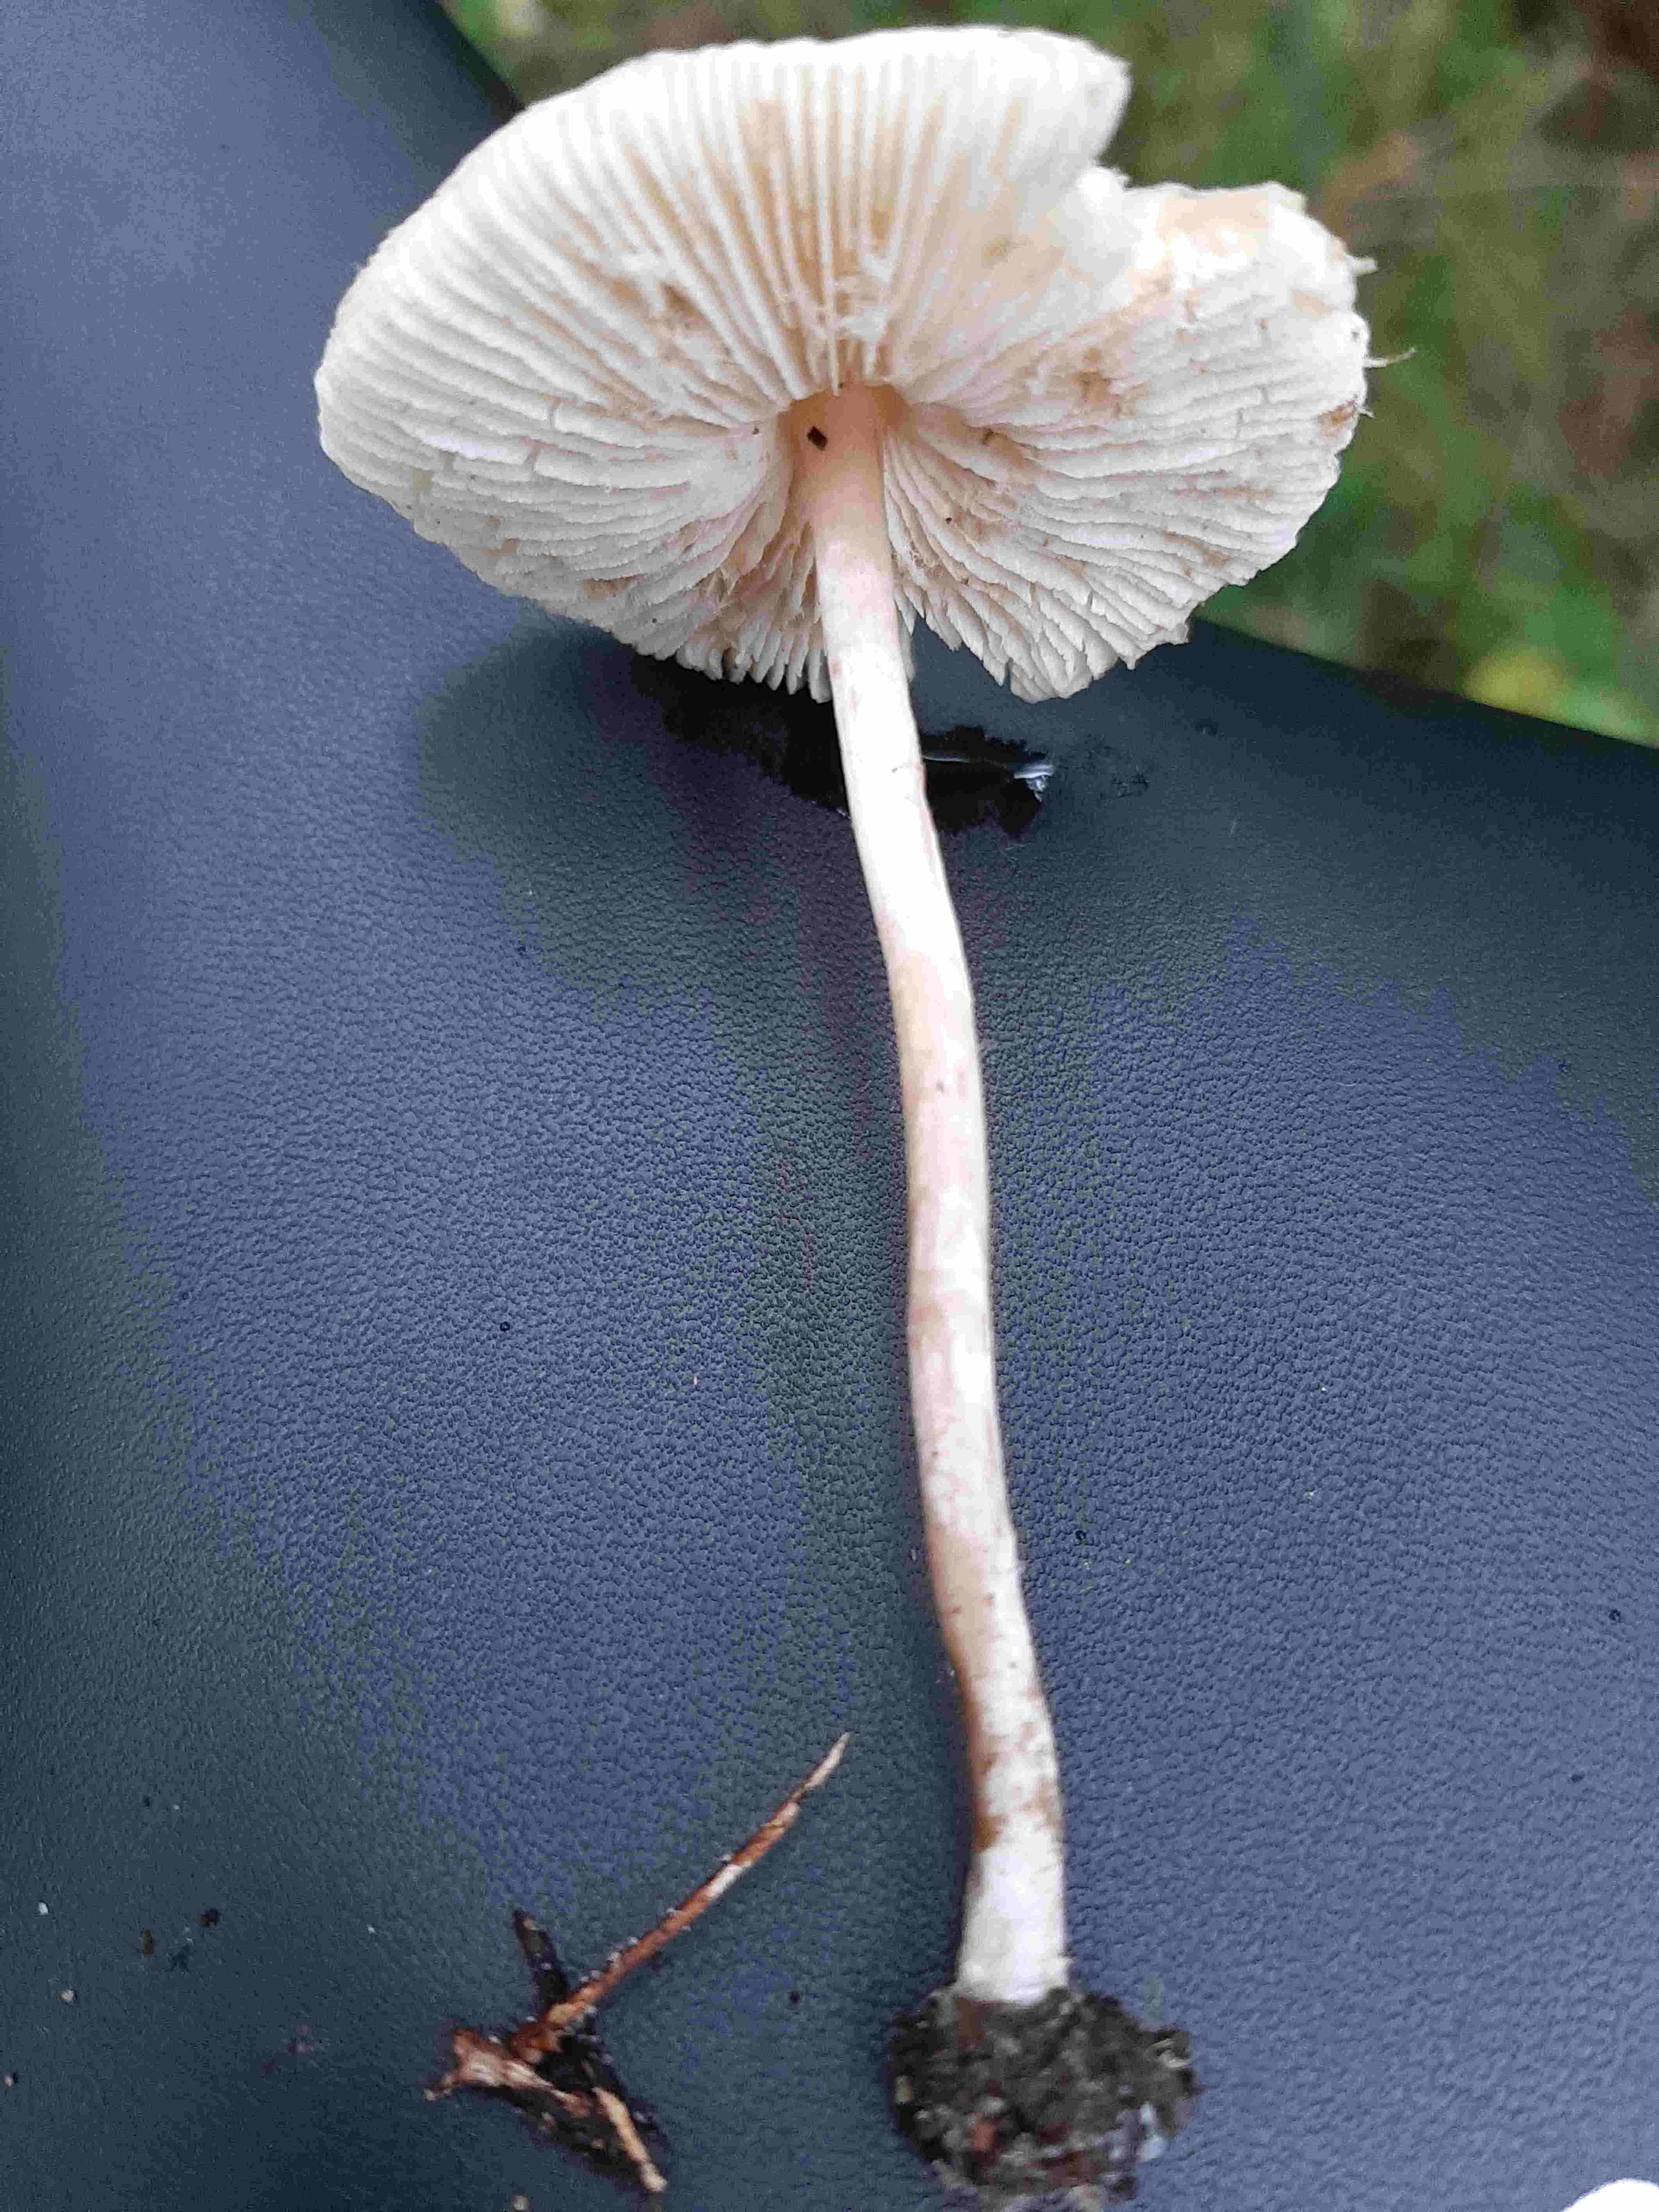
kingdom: Fungi
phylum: Basidiomycota
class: Agaricomycetes
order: Agaricales
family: Agaricaceae
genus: Lepiota
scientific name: Lepiota
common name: parasolhat
